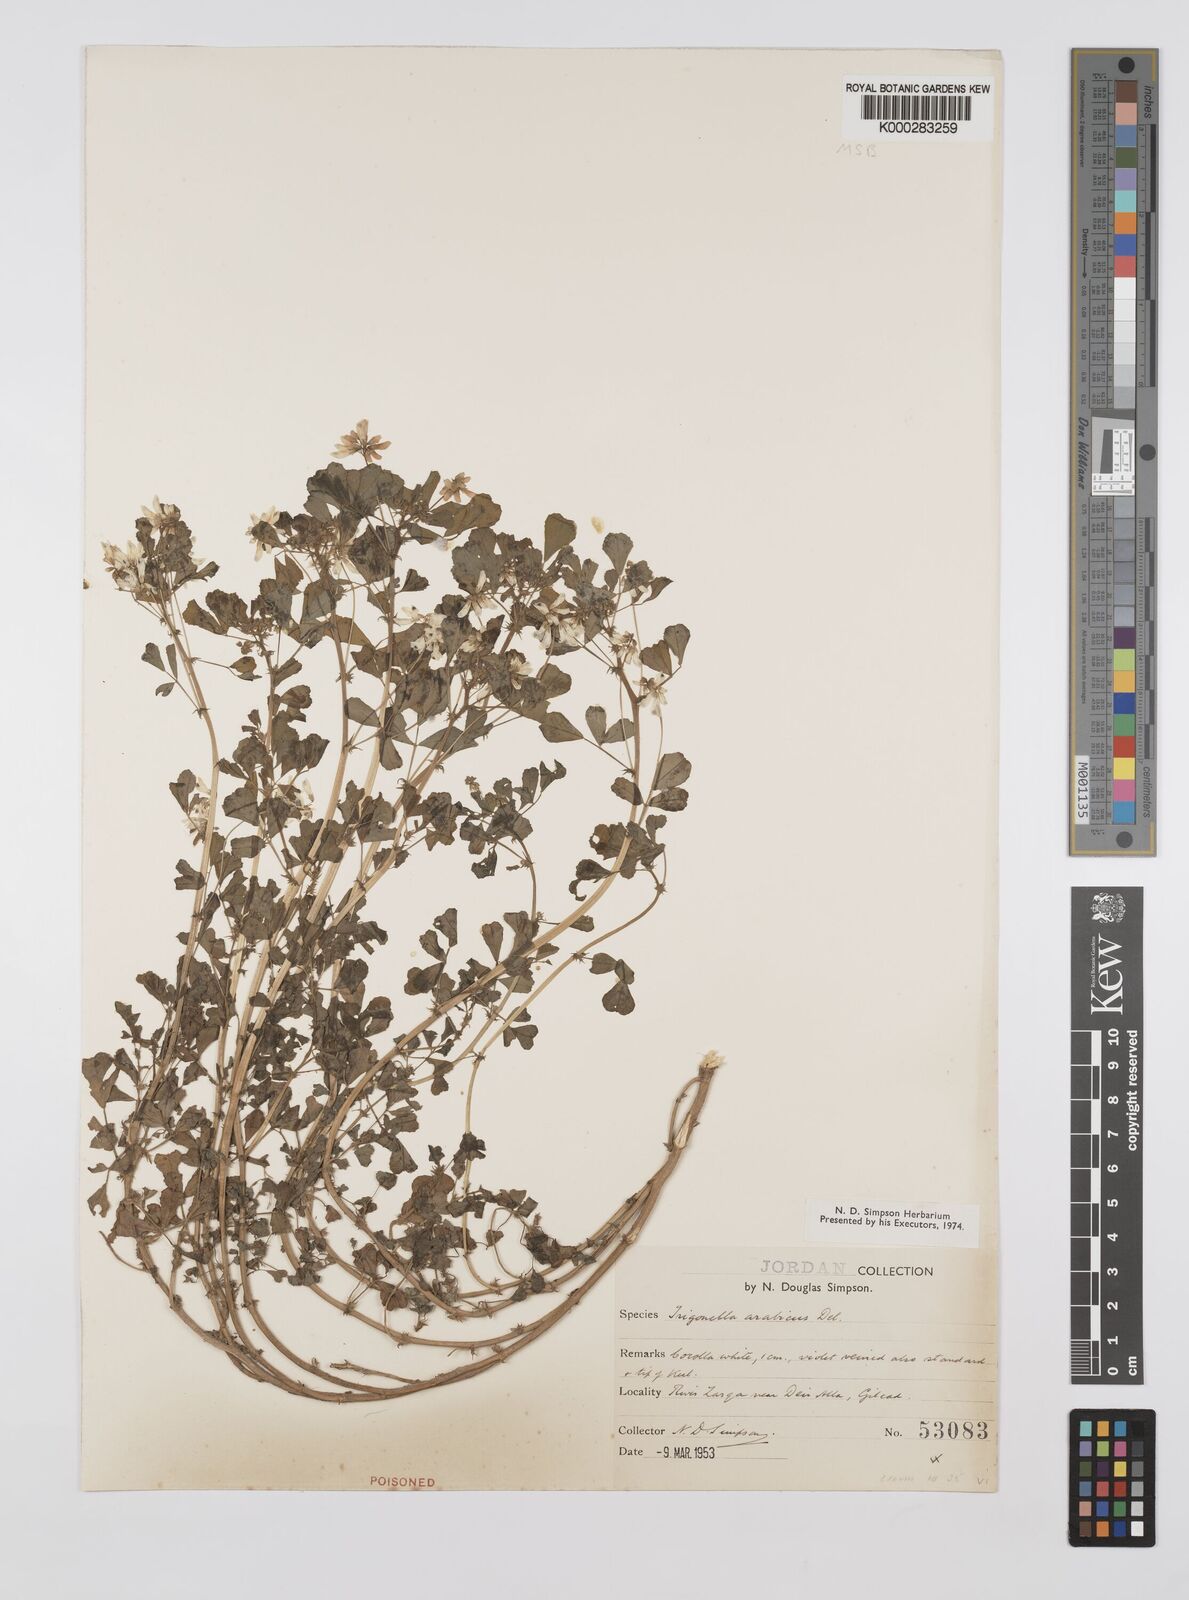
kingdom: Plantae
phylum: Tracheophyta
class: Magnoliopsida
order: Fabales
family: Fabaceae
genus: Trigonella
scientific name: Trigonella arabica
